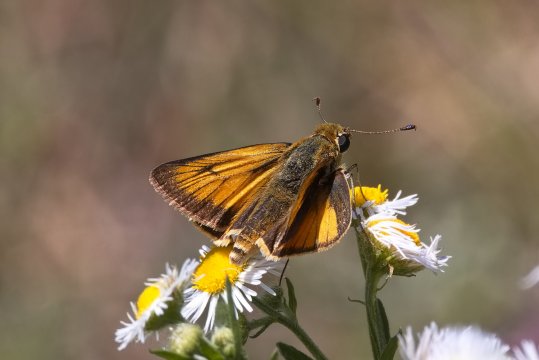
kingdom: Animalia
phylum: Arthropoda
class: Insecta
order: Lepidoptera
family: Hesperiidae
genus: Atrytone
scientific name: Atrytone delaware
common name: Delaware Skipper
